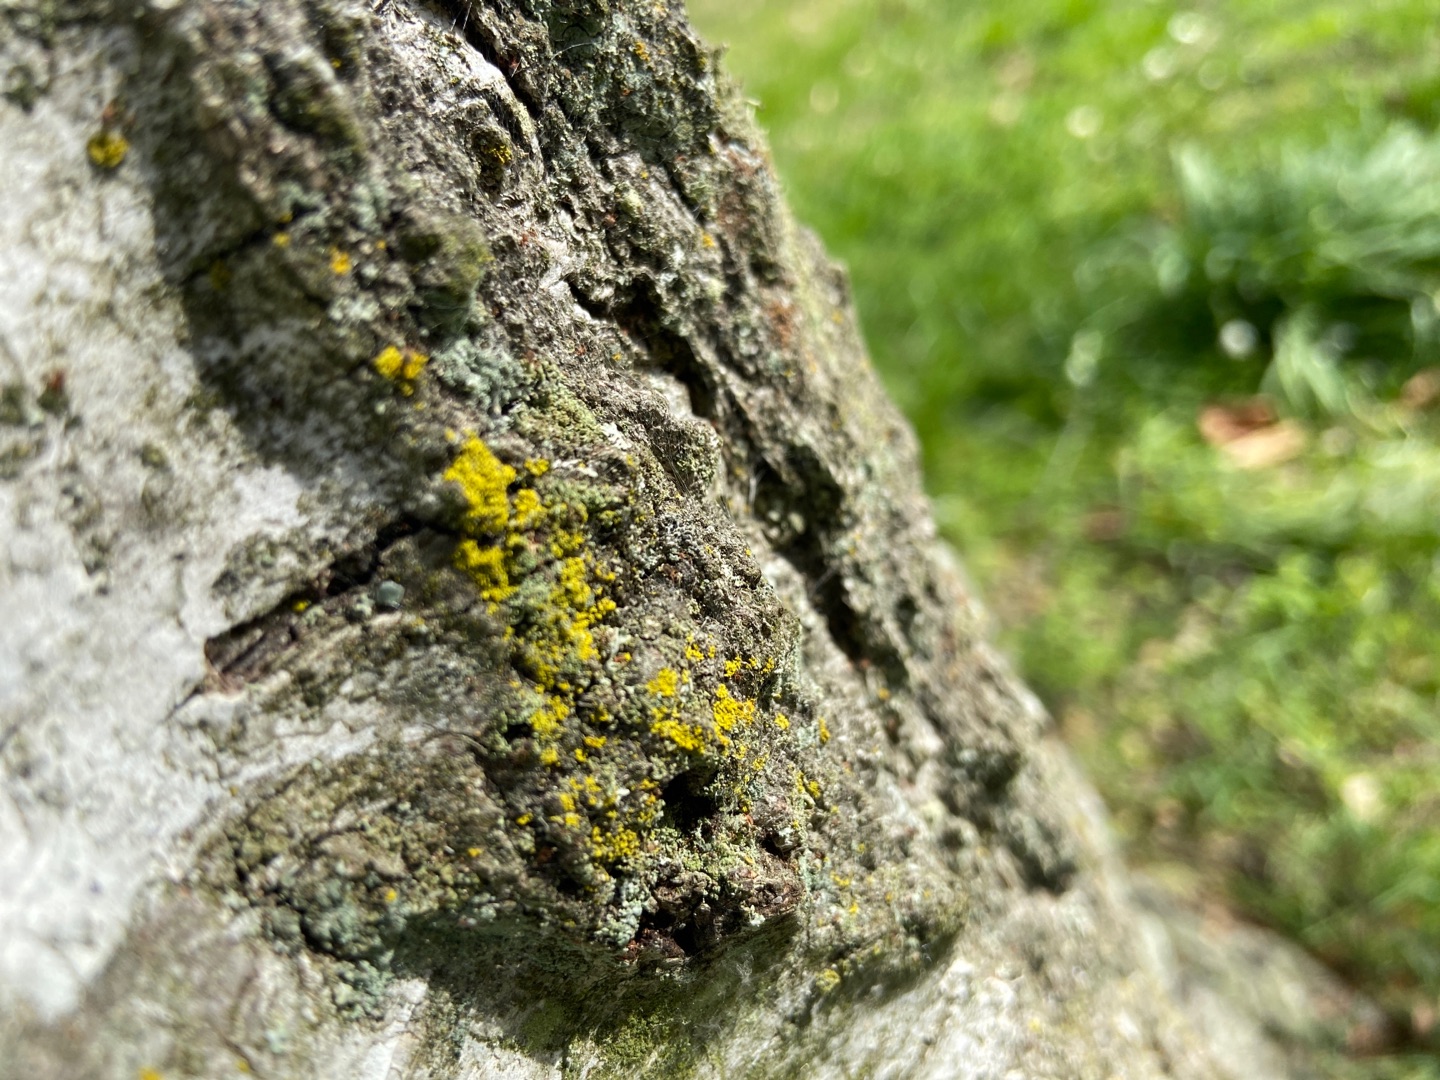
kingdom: Fungi
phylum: Ascomycota
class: Lecanoromycetes
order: Teloschistales
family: Teloschistaceae
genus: Xanthoria
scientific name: Xanthoria parietina
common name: Almindelig væggelav
